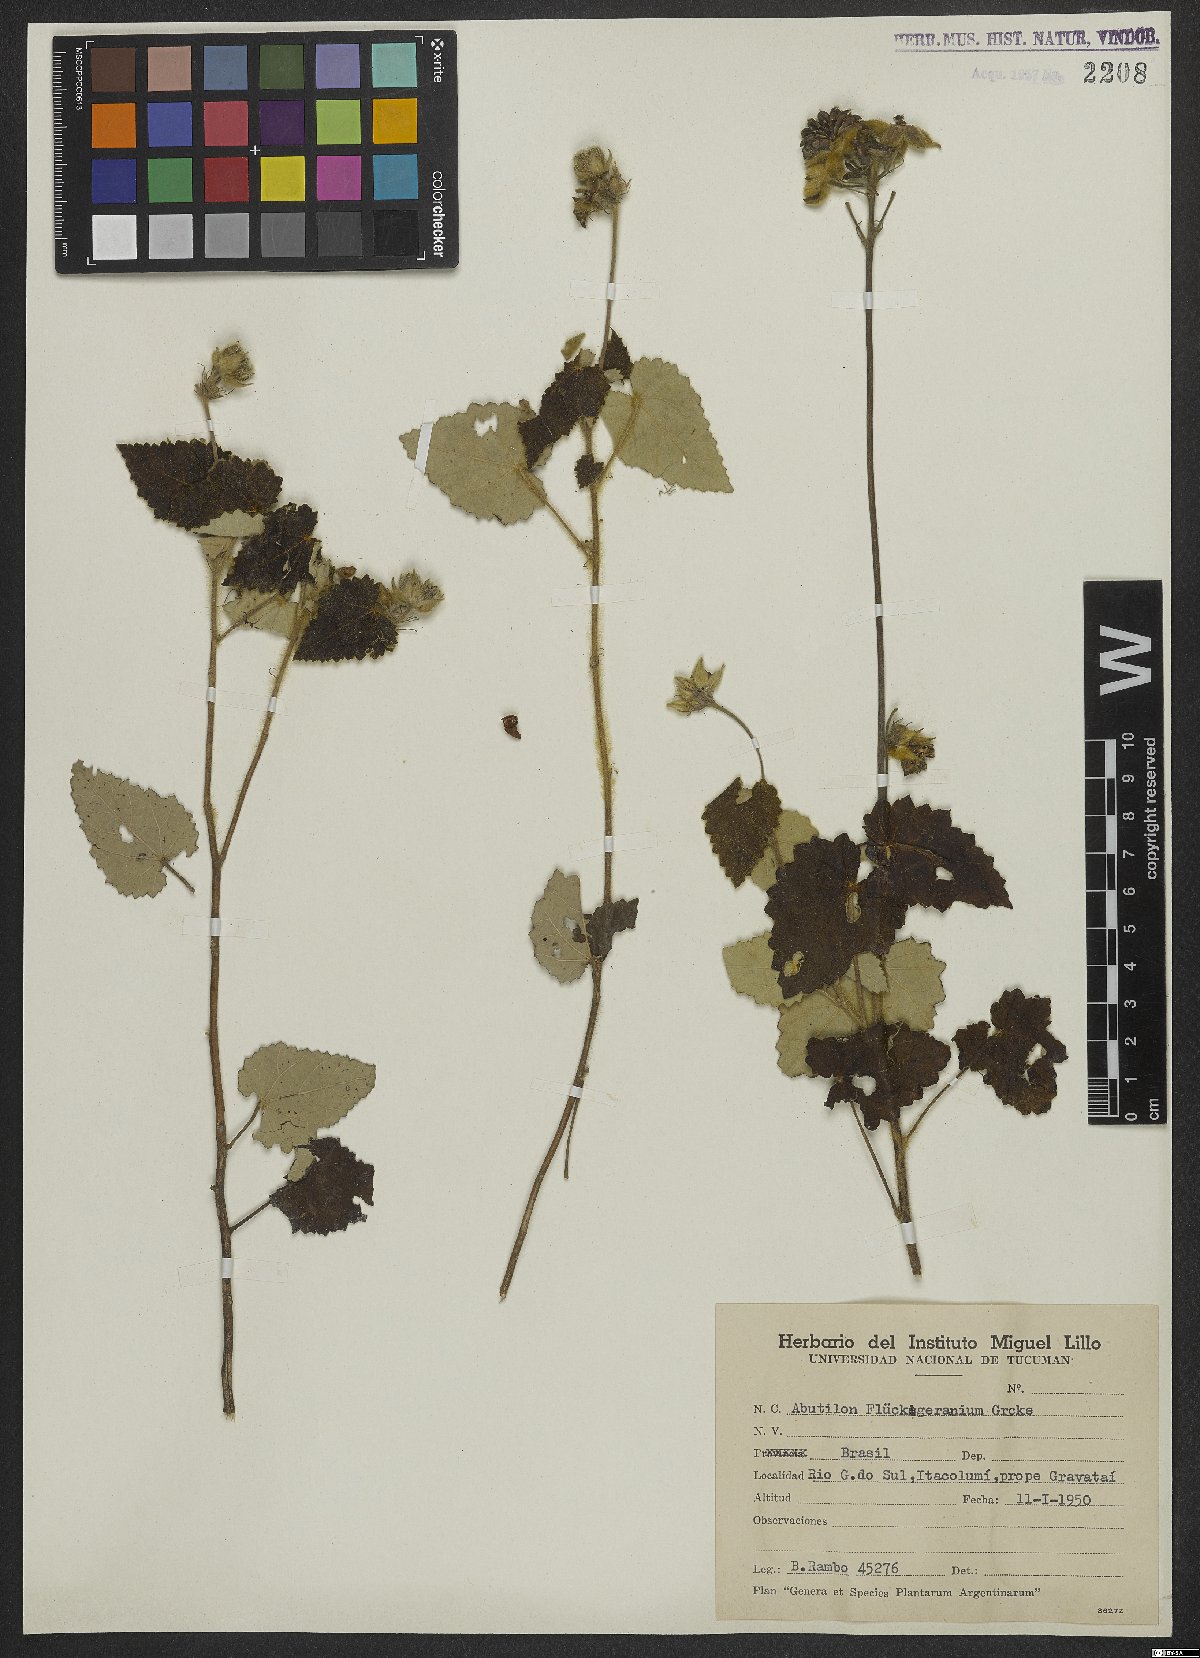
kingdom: Plantae
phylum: Tracheophyta
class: Magnoliopsida
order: Malvales
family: Malvaceae
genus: Abutilon
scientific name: Abutilon malachroides
